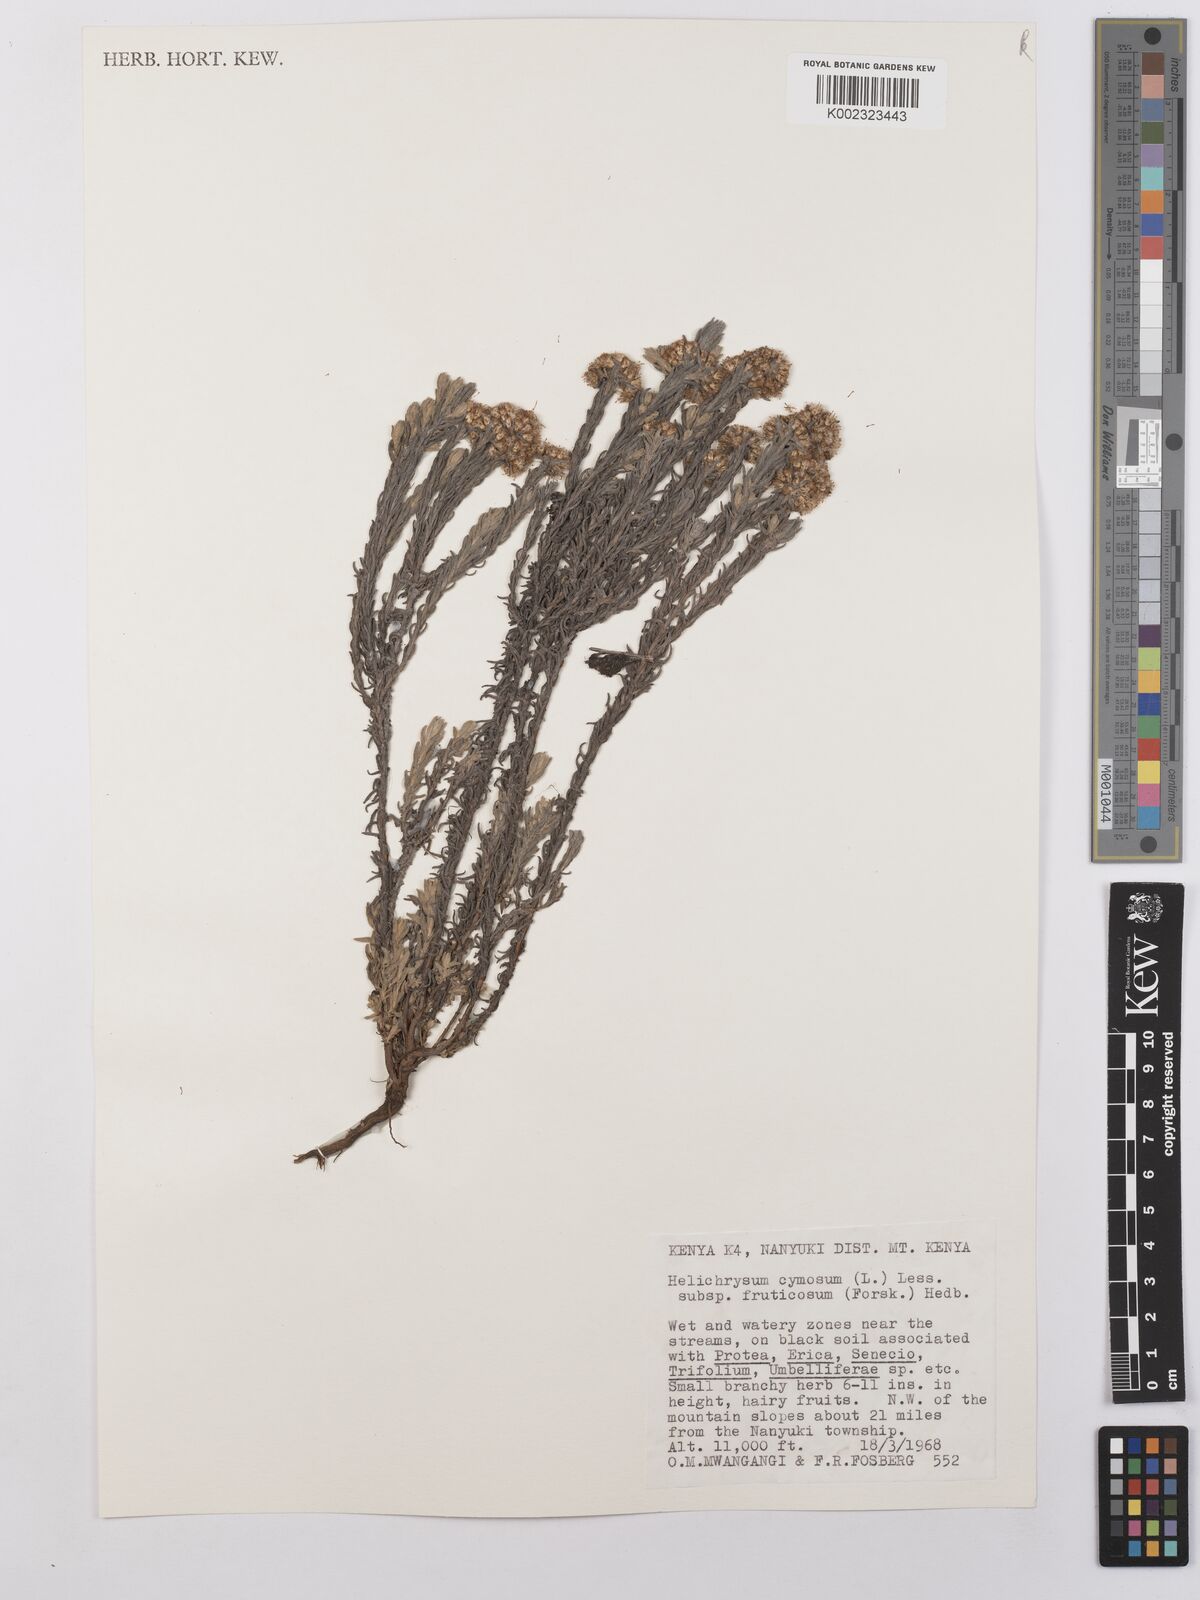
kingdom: Plantae
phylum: Tracheophyta
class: Magnoliopsida
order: Asterales
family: Asteraceae
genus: Helichrysum
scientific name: Helichrysum forskahlii
